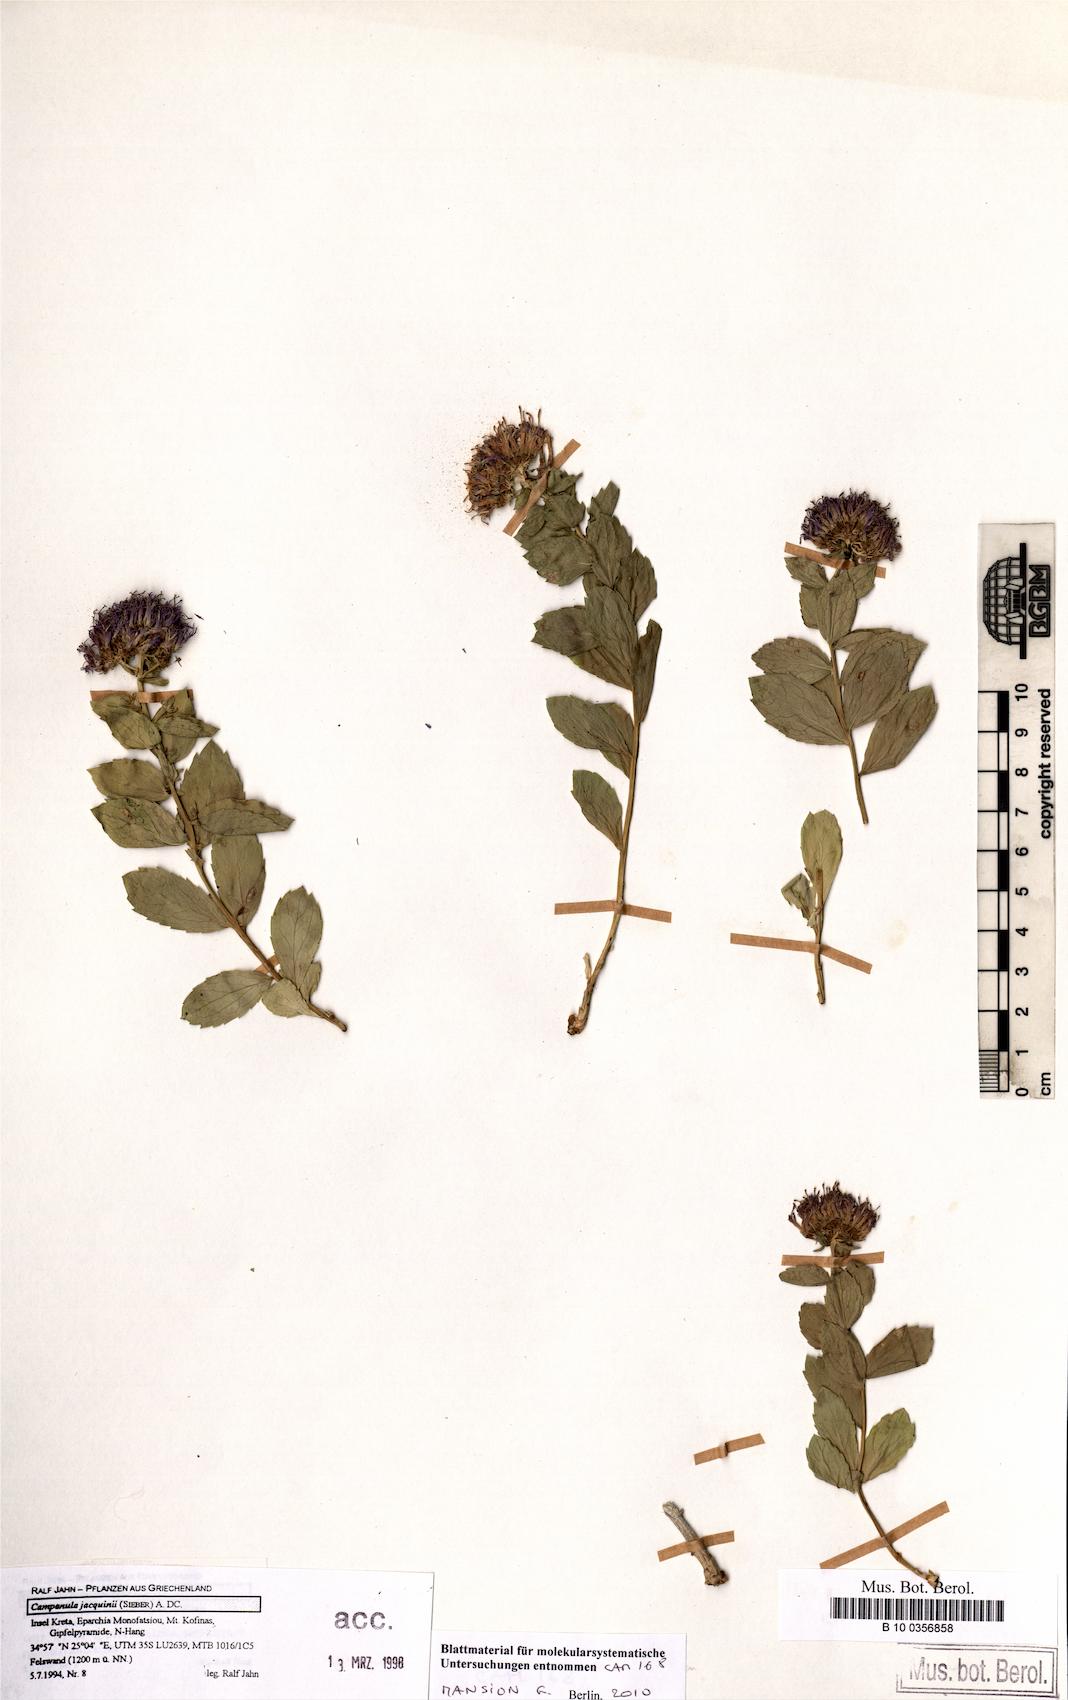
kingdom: Plantae
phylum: Tracheophyta
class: Magnoliopsida
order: Asterales
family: Campanulaceae
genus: Campanula
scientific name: Campanula jacquinii
